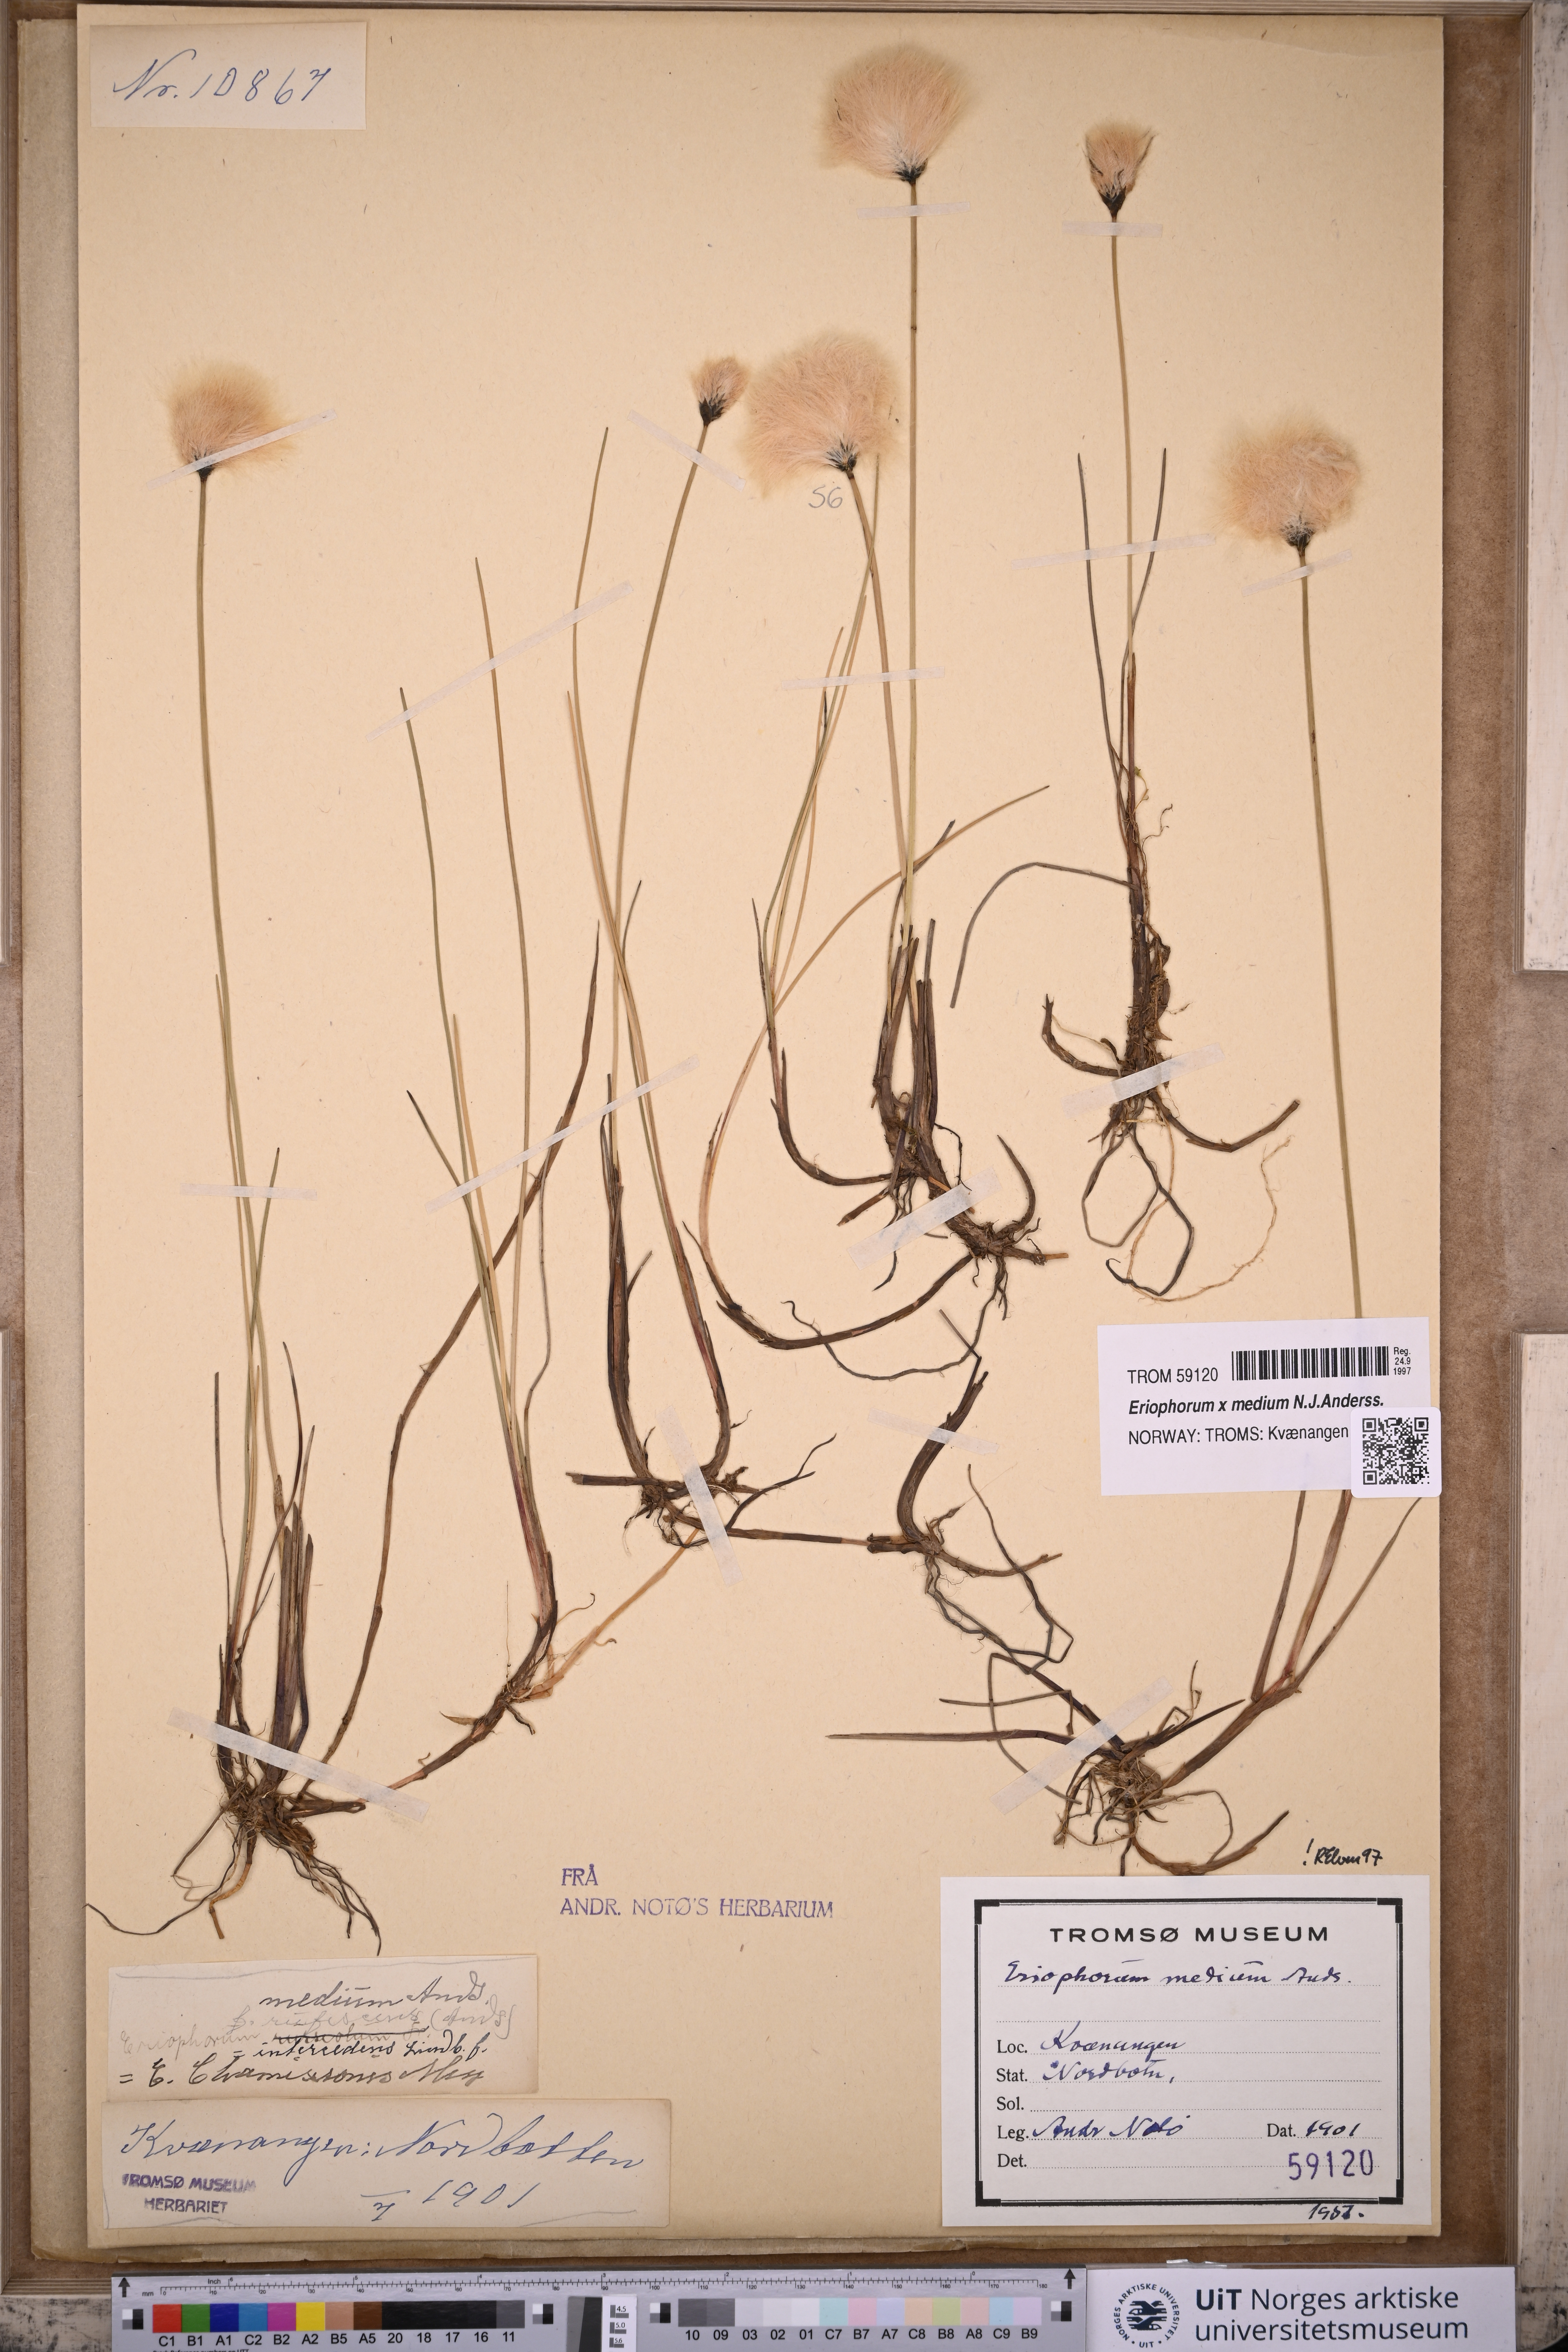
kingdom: Plantae
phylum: Tracheophyta
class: Liliopsida
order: Poales
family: Cyperaceae
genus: Eriophorum
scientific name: Eriophorum medium
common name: Intermediate cottongrass
